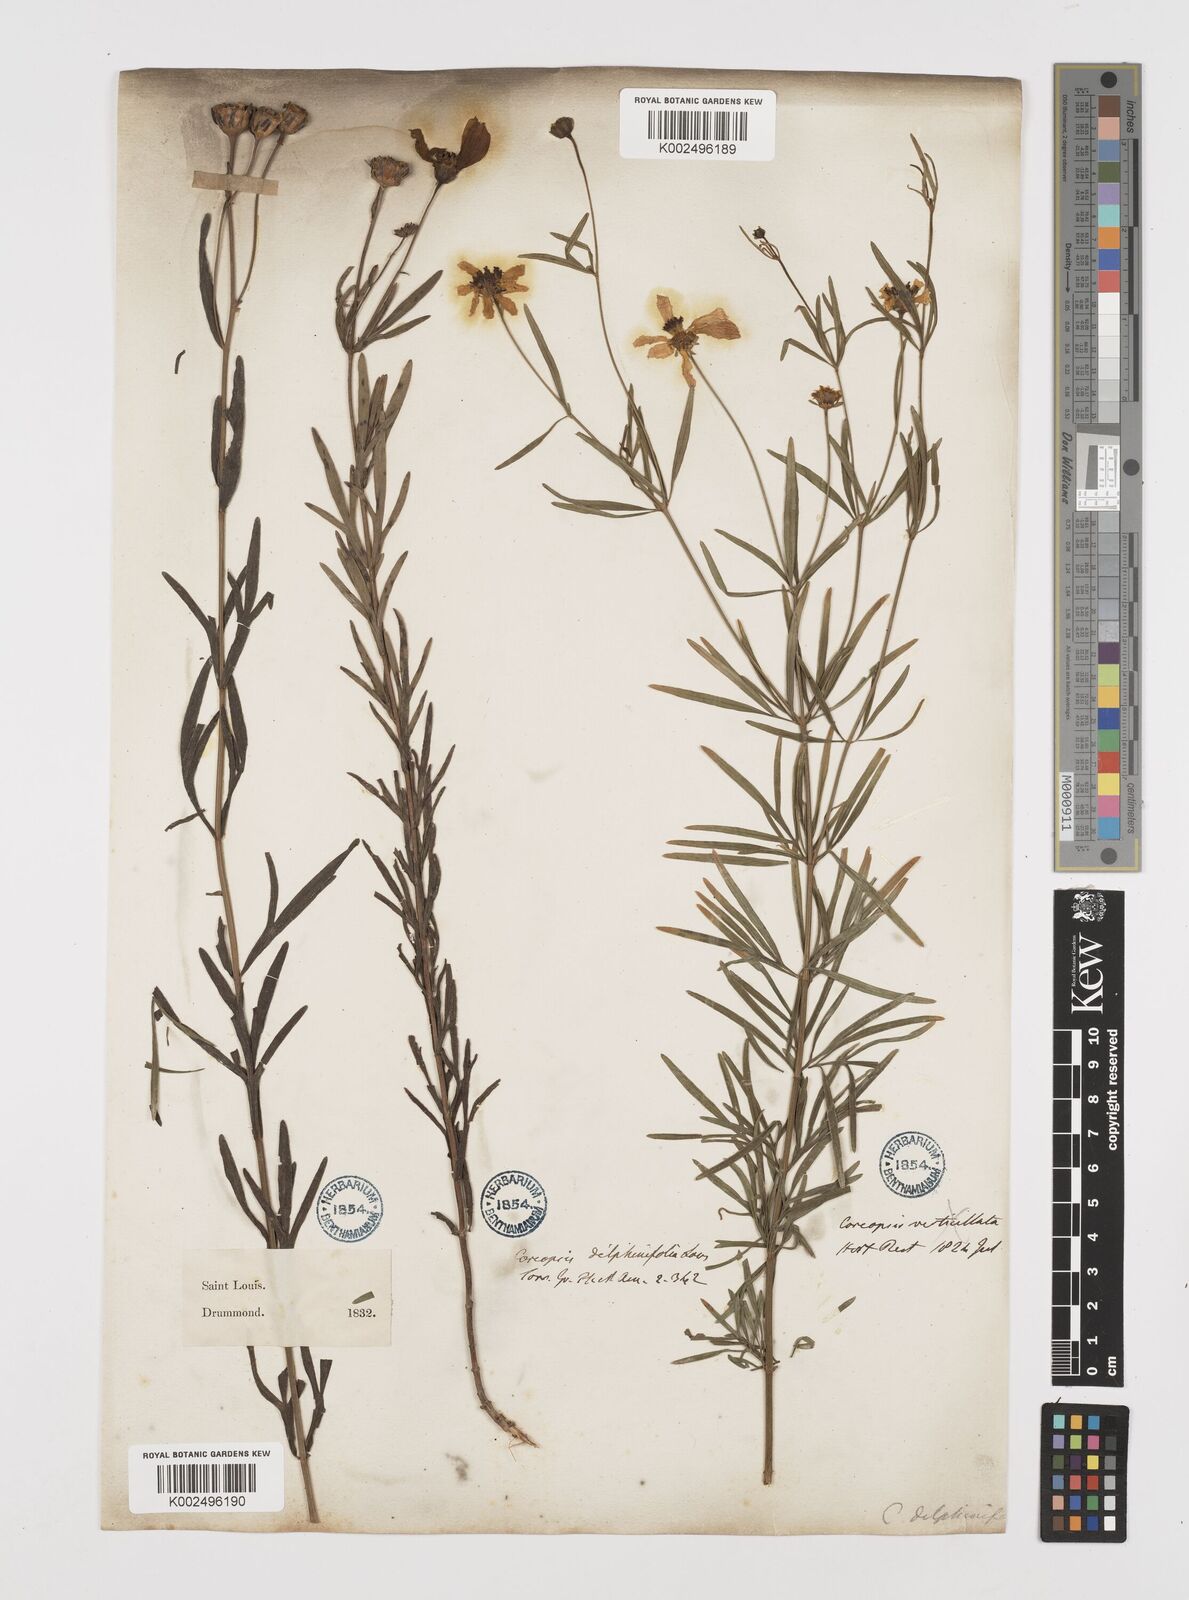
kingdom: Plantae
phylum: Tracheophyta
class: Magnoliopsida
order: Asterales
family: Asteraceae
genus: Coreopsis
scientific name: Coreopsis palmata
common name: Prairie coreopsis
